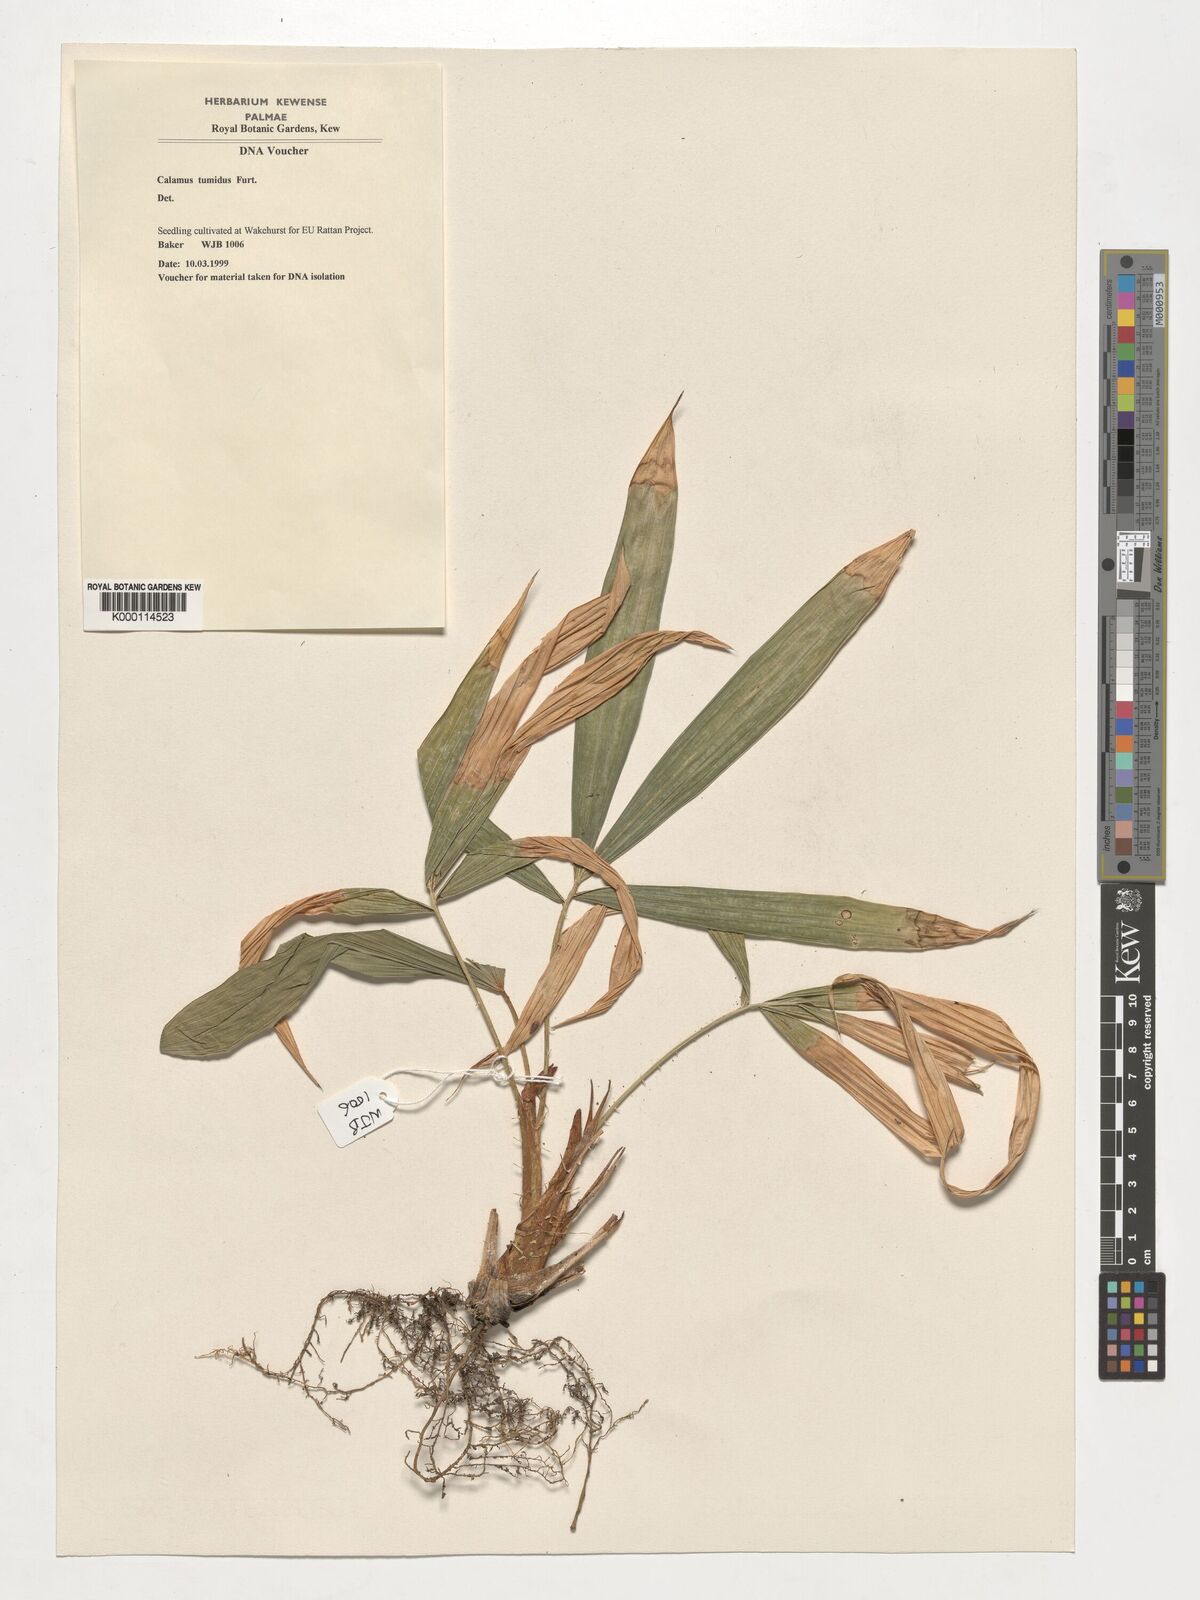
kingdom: Plantae
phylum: Tracheophyta
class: Liliopsida
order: Arecales
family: Arecaceae
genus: Calamus
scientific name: Calamus tumidus
